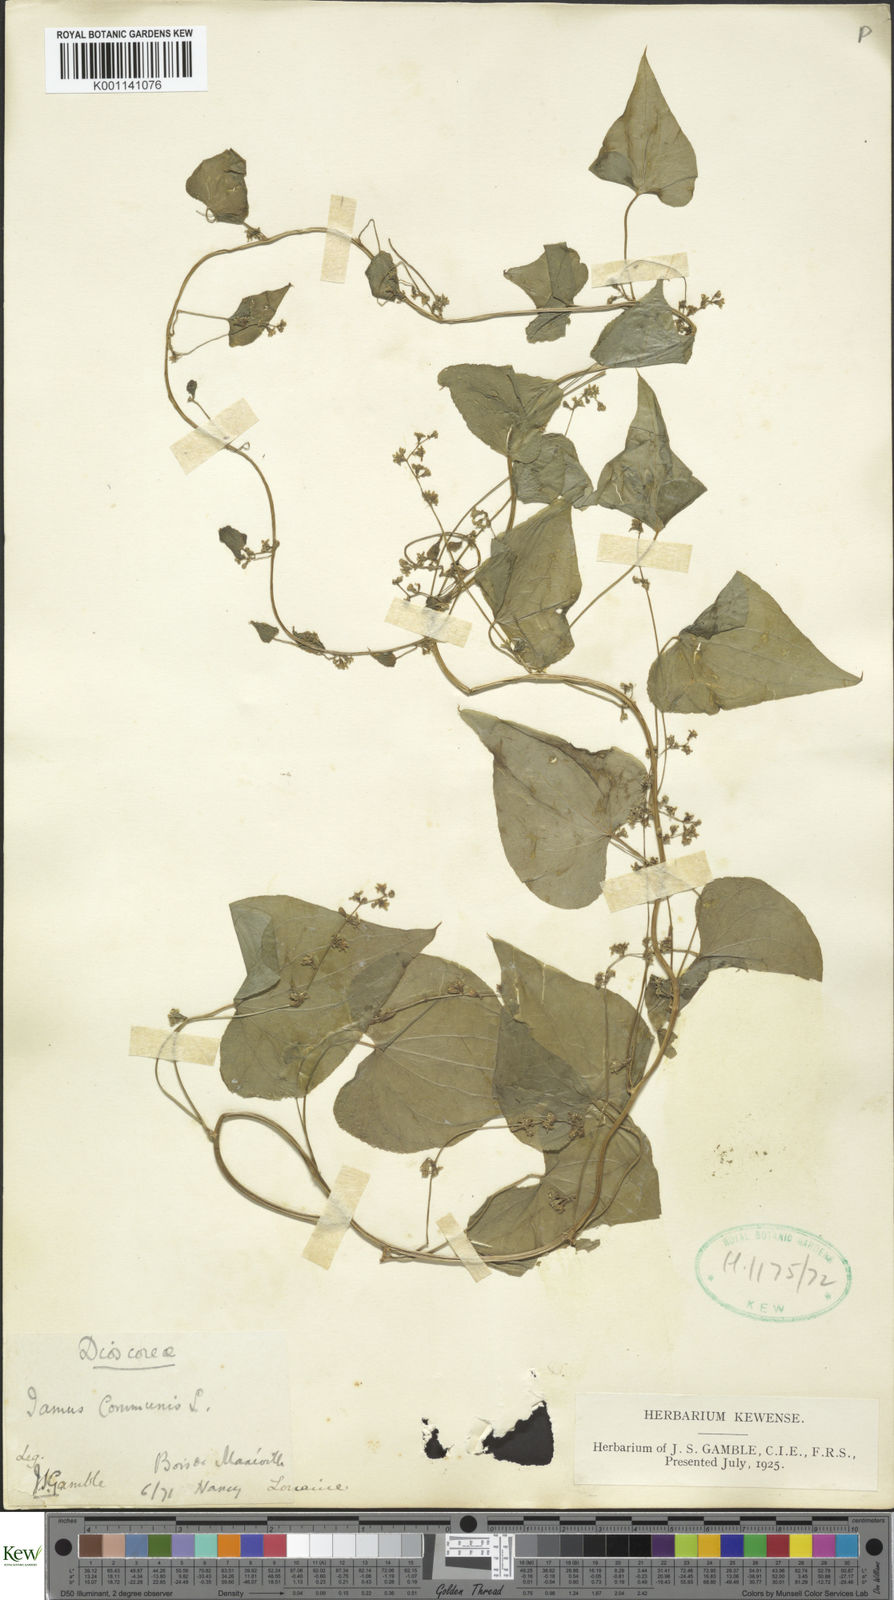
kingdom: Plantae
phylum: Tracheophyta
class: Liliopsida
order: Dioscoreales
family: Dioscoreaceae
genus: Dioscorea
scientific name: Dioscorea communis
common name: Black-bindweed
